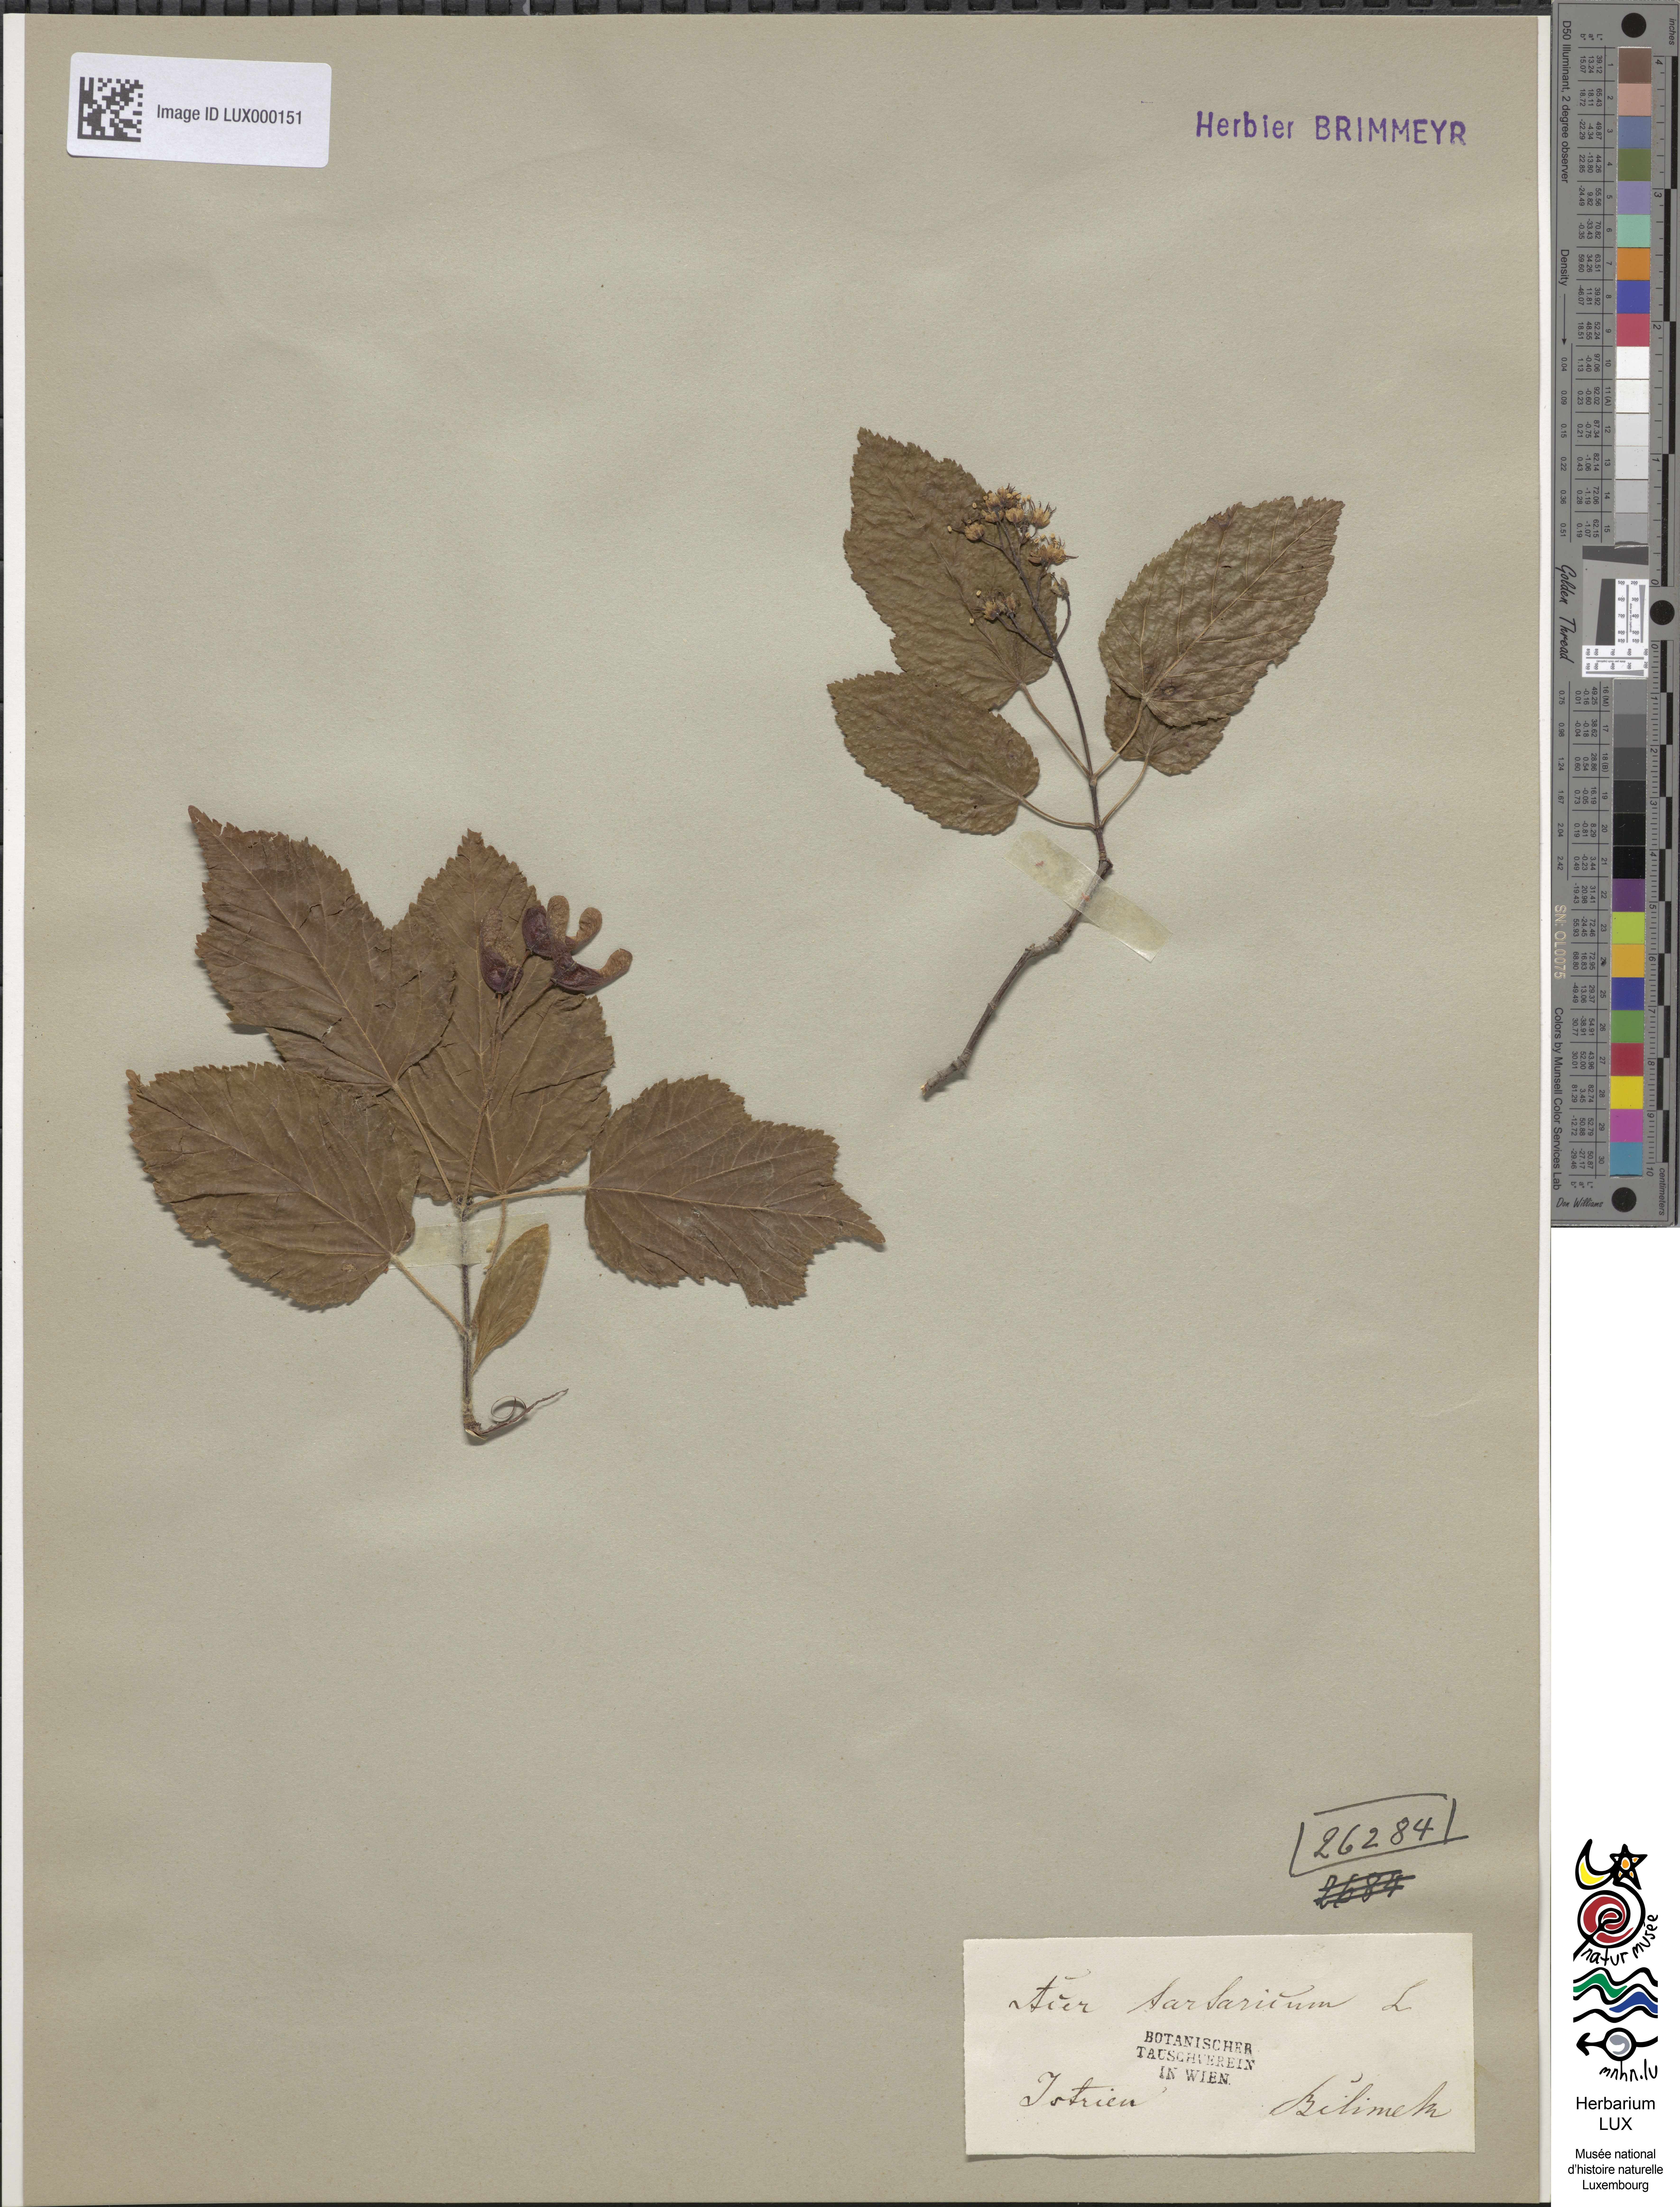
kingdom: Plantae
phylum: Tracheophyta
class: Magnoliopsida
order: Sapindales
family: Sapindaceae
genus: Acer
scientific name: Acer tataricum
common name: Tartar maple
